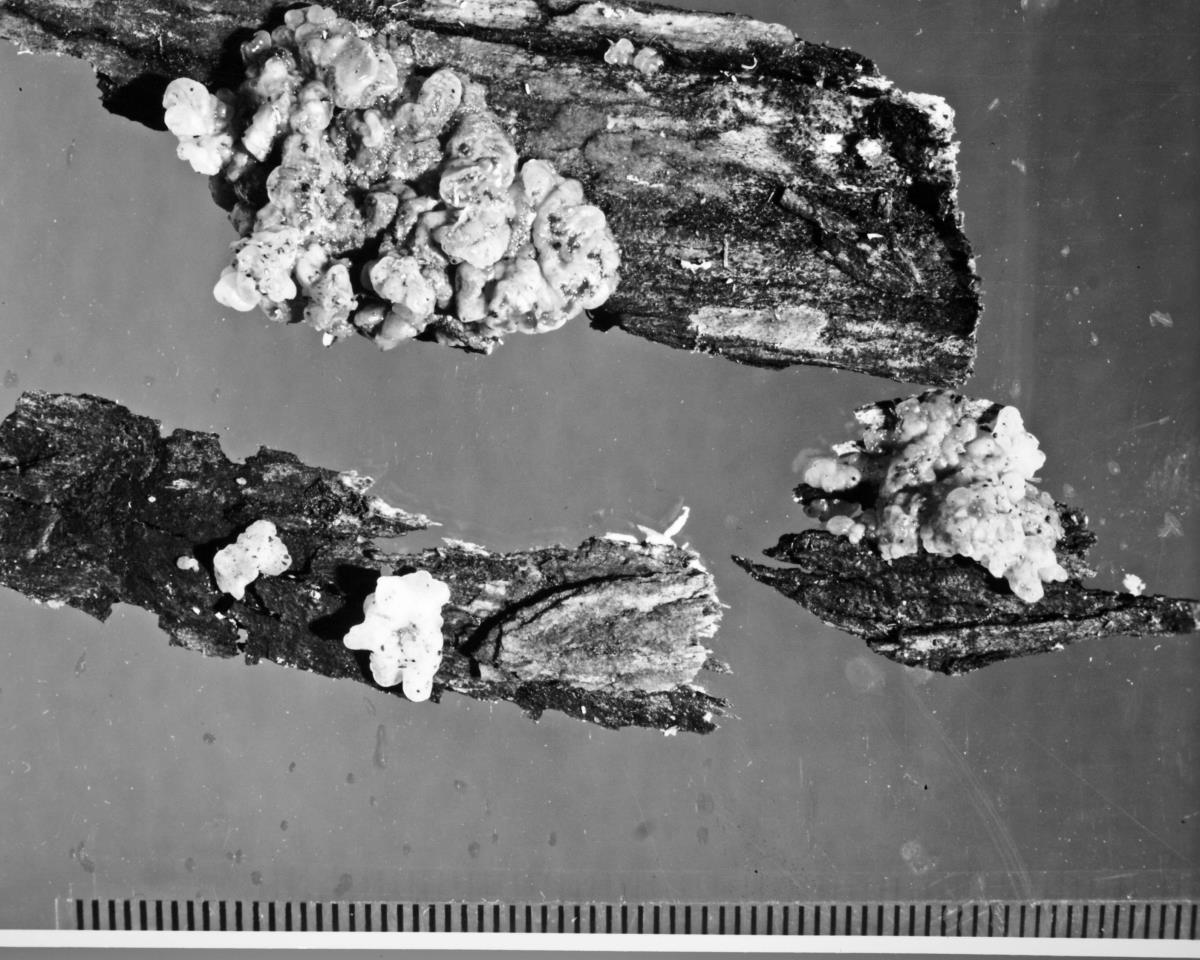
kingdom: Fungi
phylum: Basidiomycota
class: Agaricomycetes
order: Auriculariales
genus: Ductifera
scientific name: Ductifera sucina
